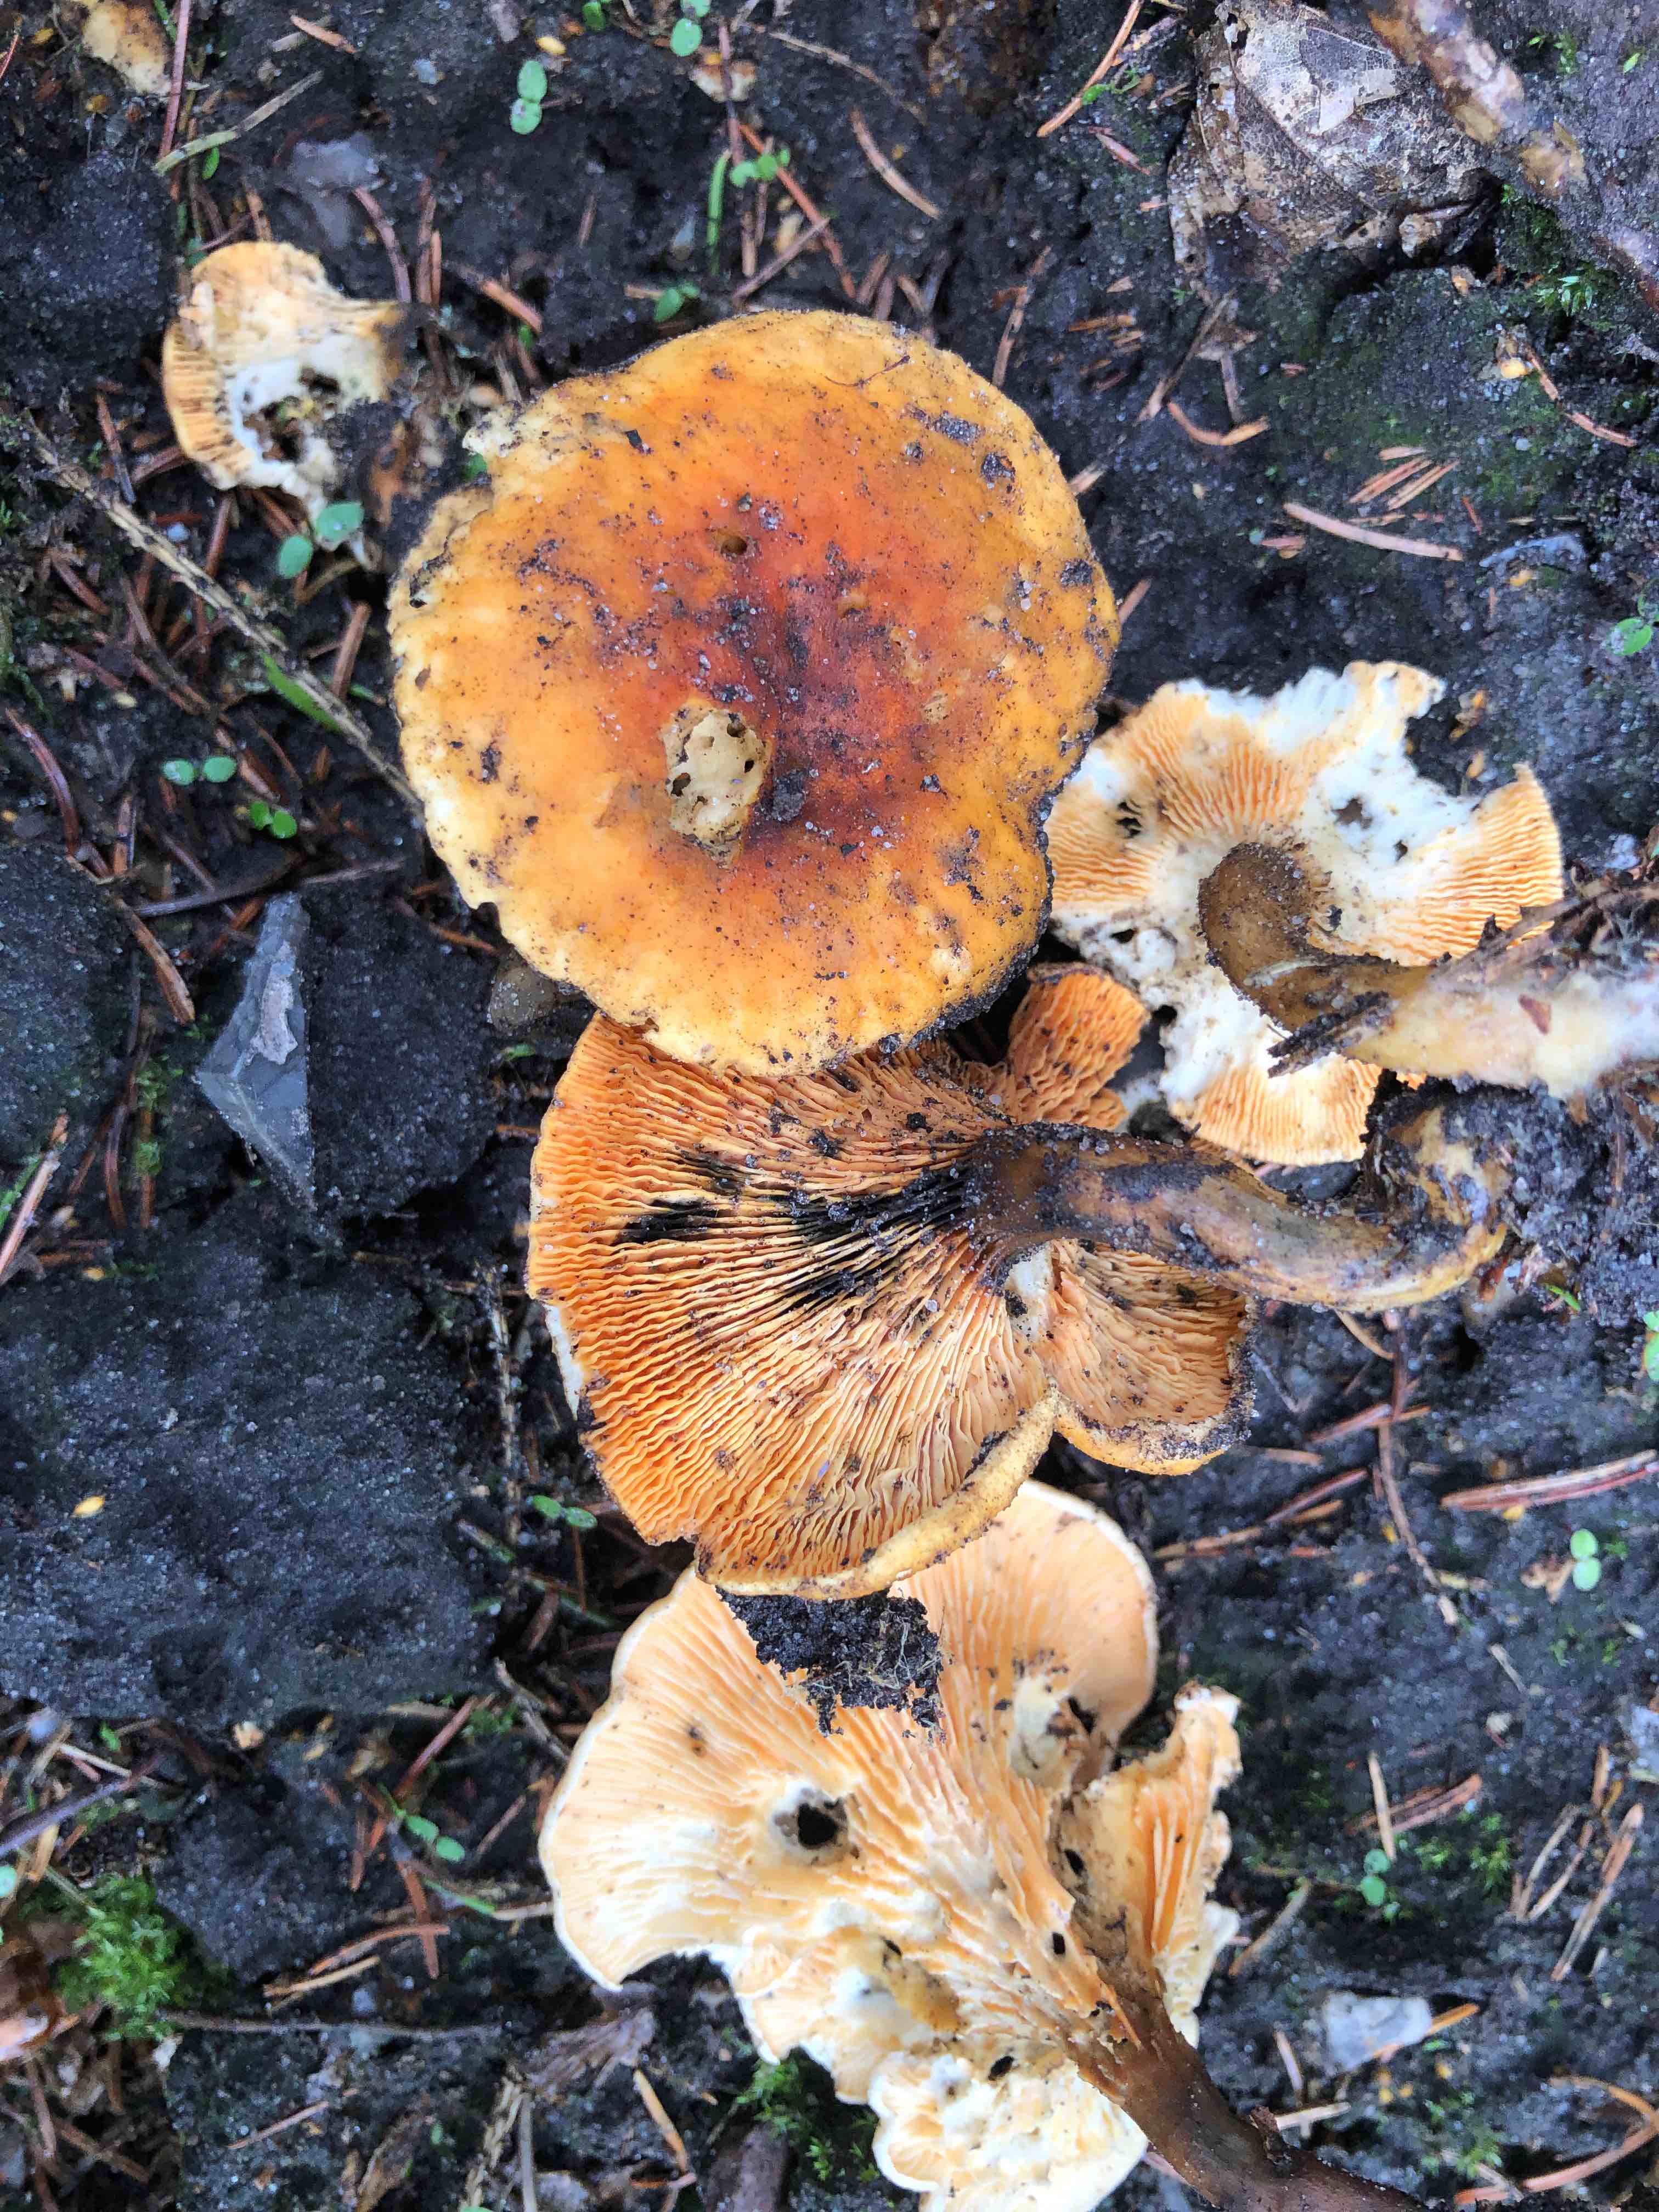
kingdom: Fungi
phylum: Basidiomycota
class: Agaricomycetes
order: Boletales
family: Hygrophoropsidaceae
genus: Hygrophoropsis
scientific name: Hygrophoropsis aurantiaca
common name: almindelig orangekantarel
